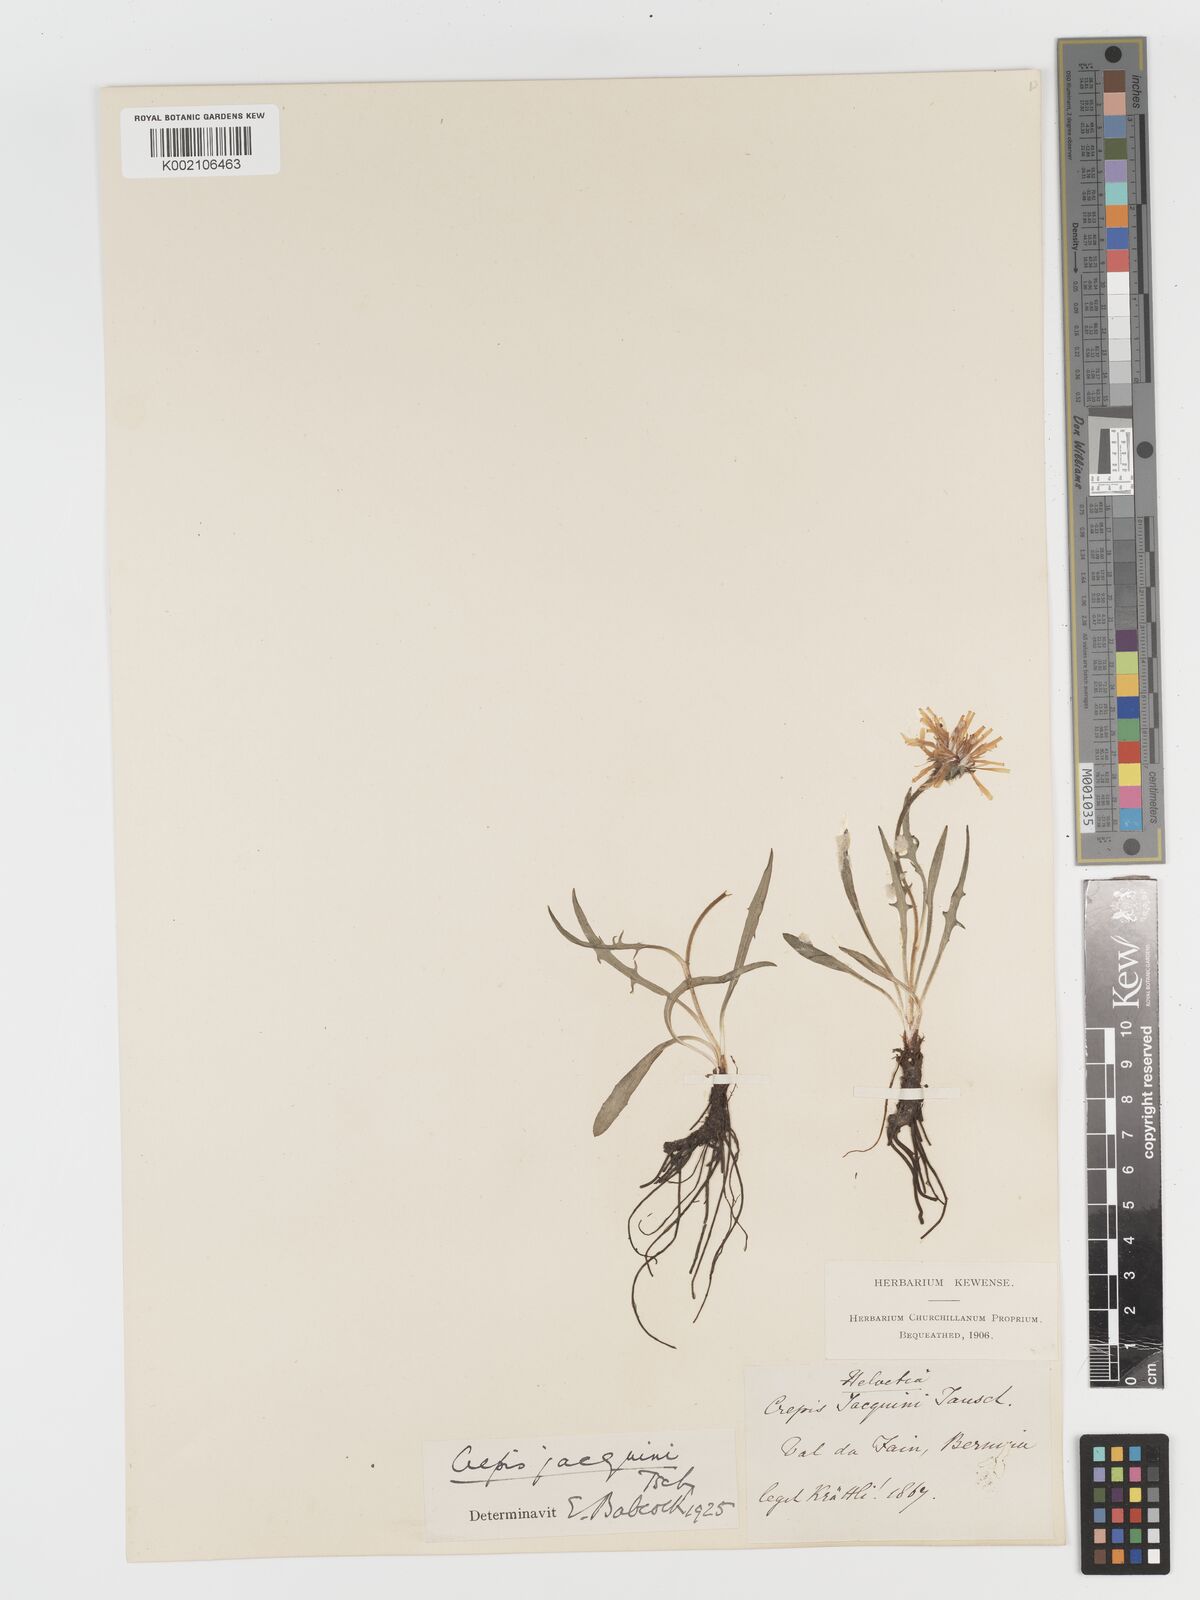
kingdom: Plantae
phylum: Tracheophyta
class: Magnoliopsida
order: Asterales
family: Asteraceae
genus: Crepis
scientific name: Crepis jacquinii
